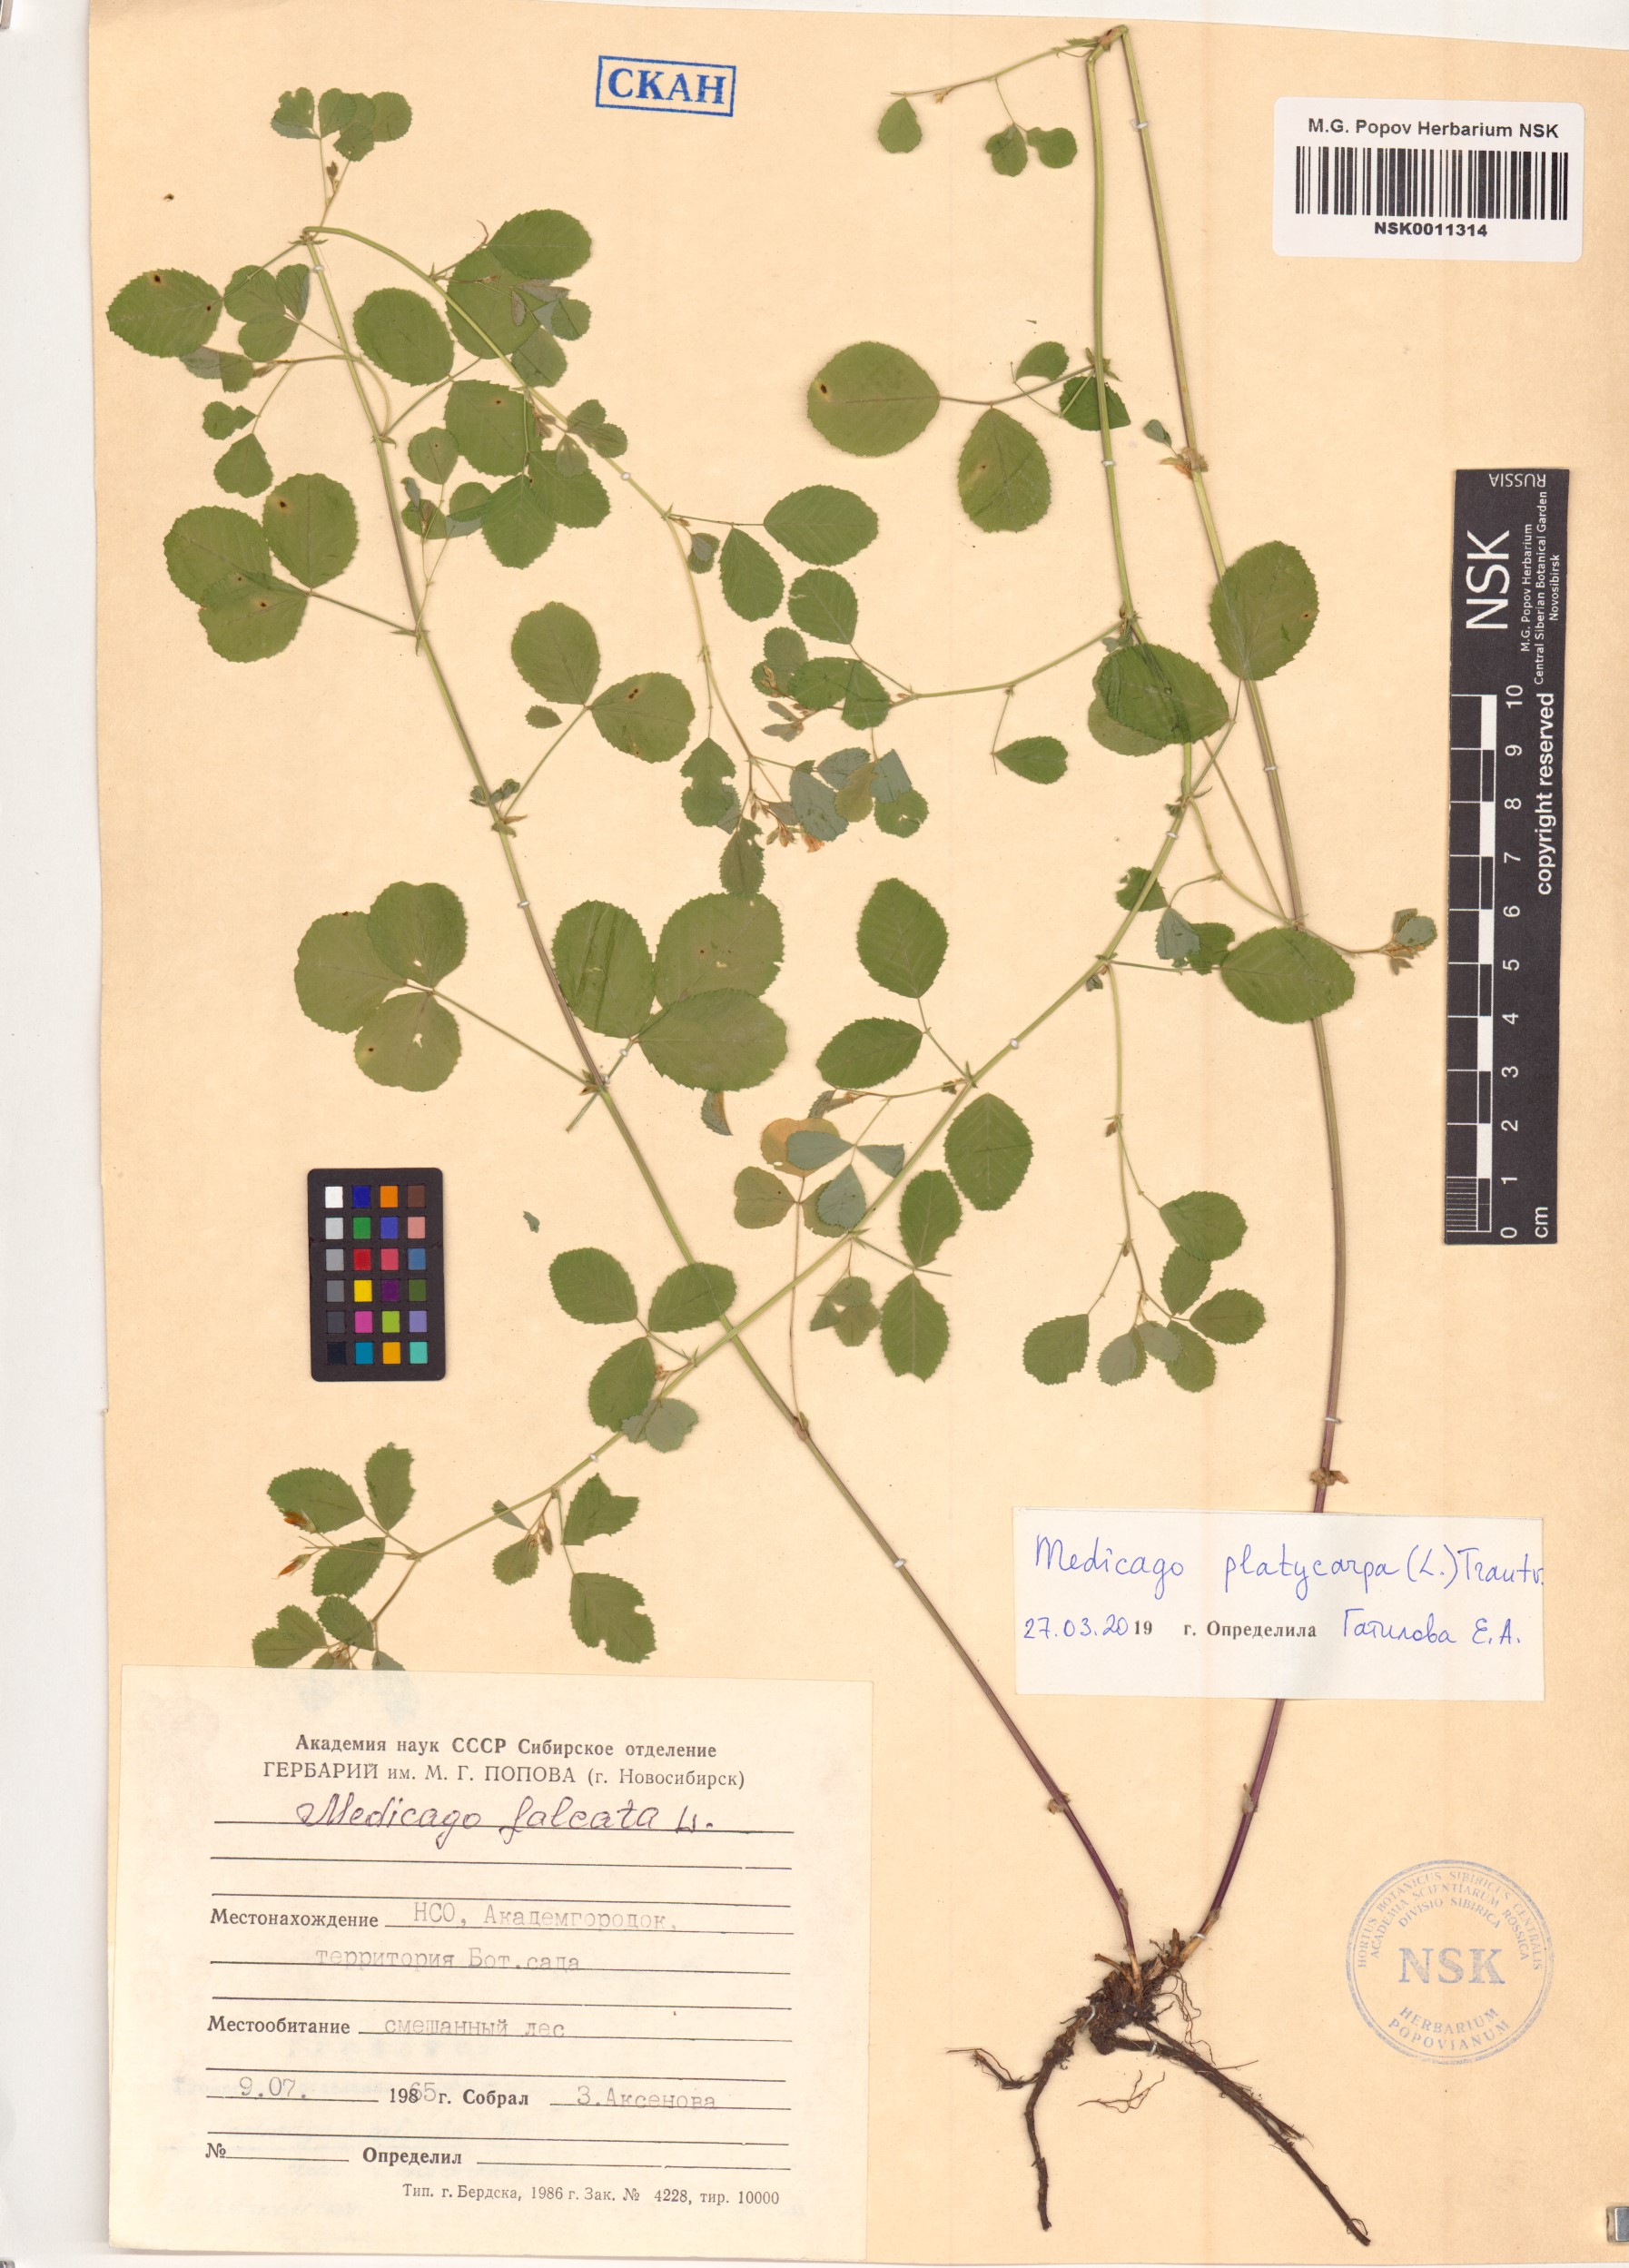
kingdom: Plantae
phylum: Tracheophyta
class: Magnoliopsida
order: Fabales
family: Fabaceae
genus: Medicago
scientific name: Medicago platycarpos
